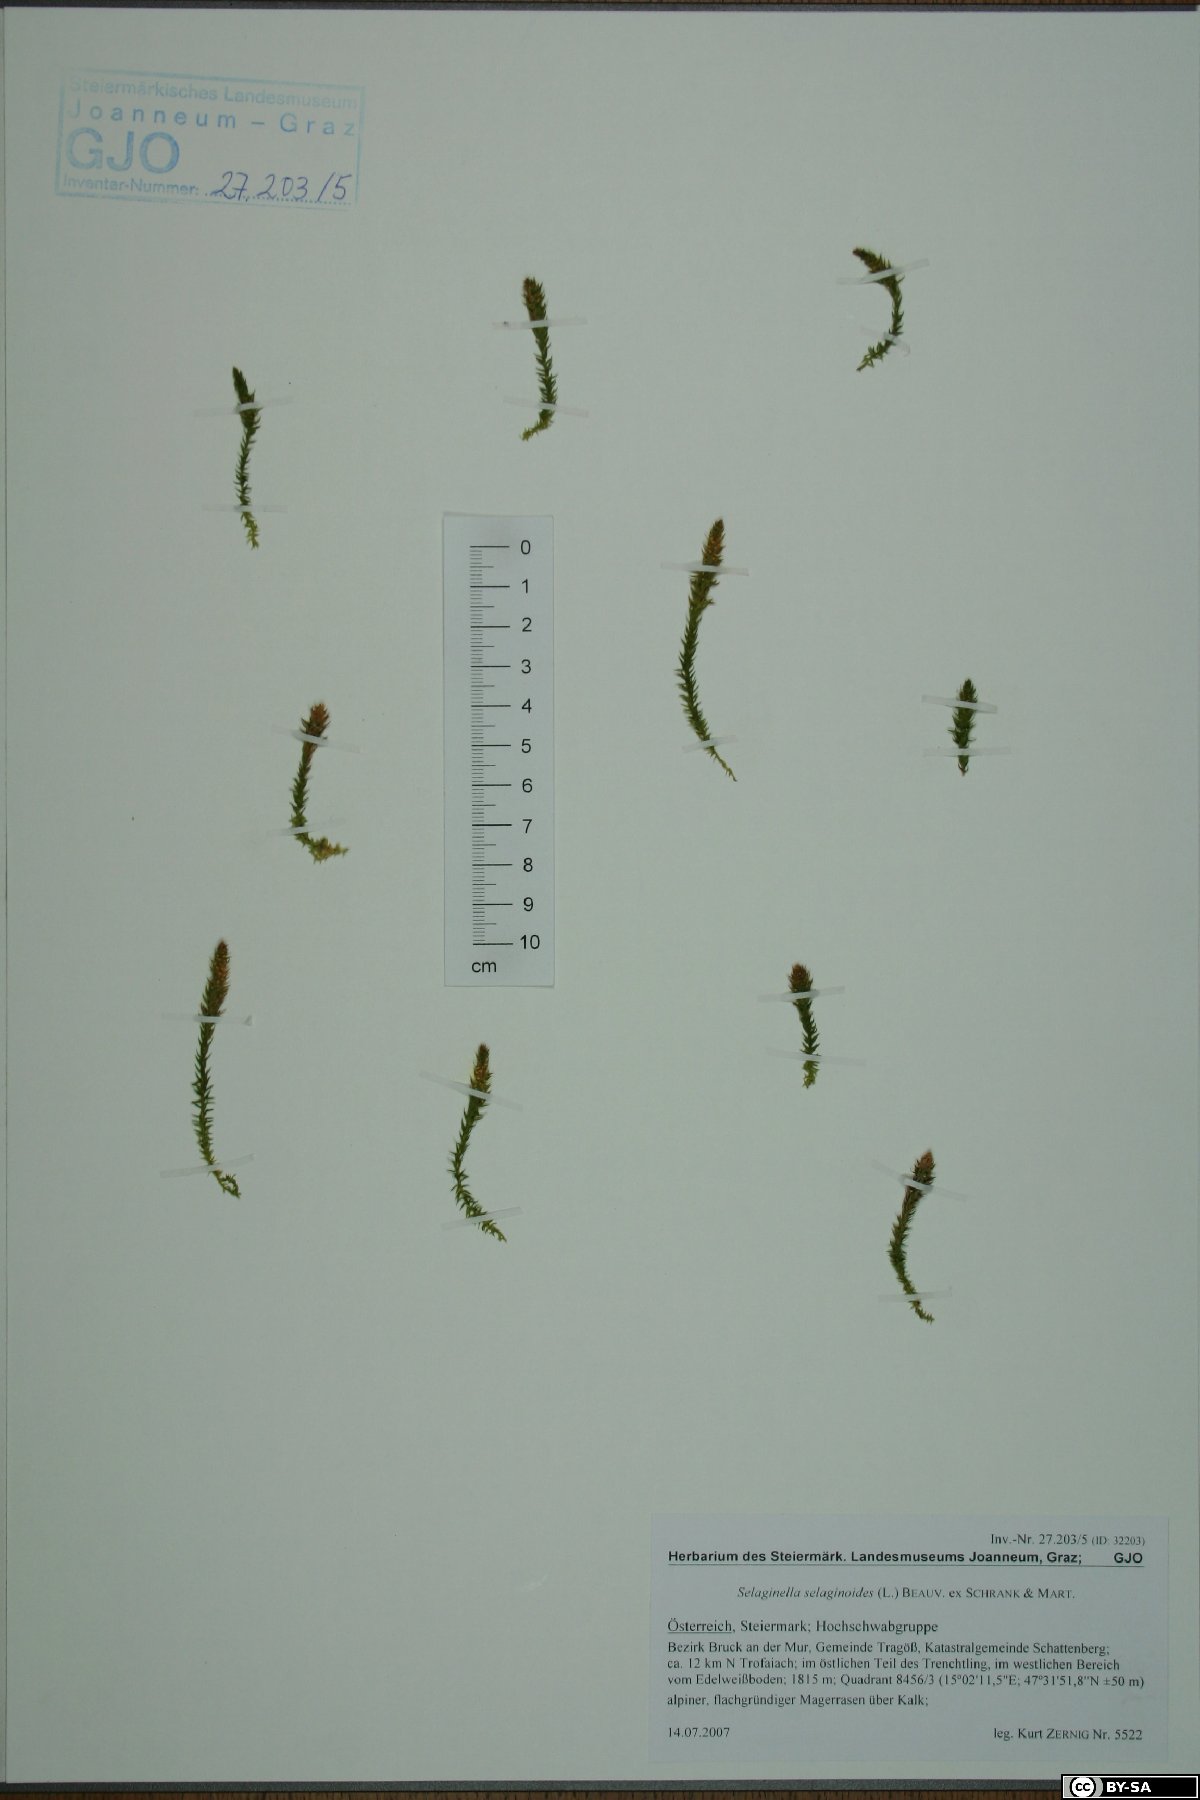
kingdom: Plantae
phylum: Tracheophyta
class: Lycopodiopsida
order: Selaginellales
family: Selaginellaceae
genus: Selaginella
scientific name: Selaginella selaginoides
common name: Prickly mountain-moss
